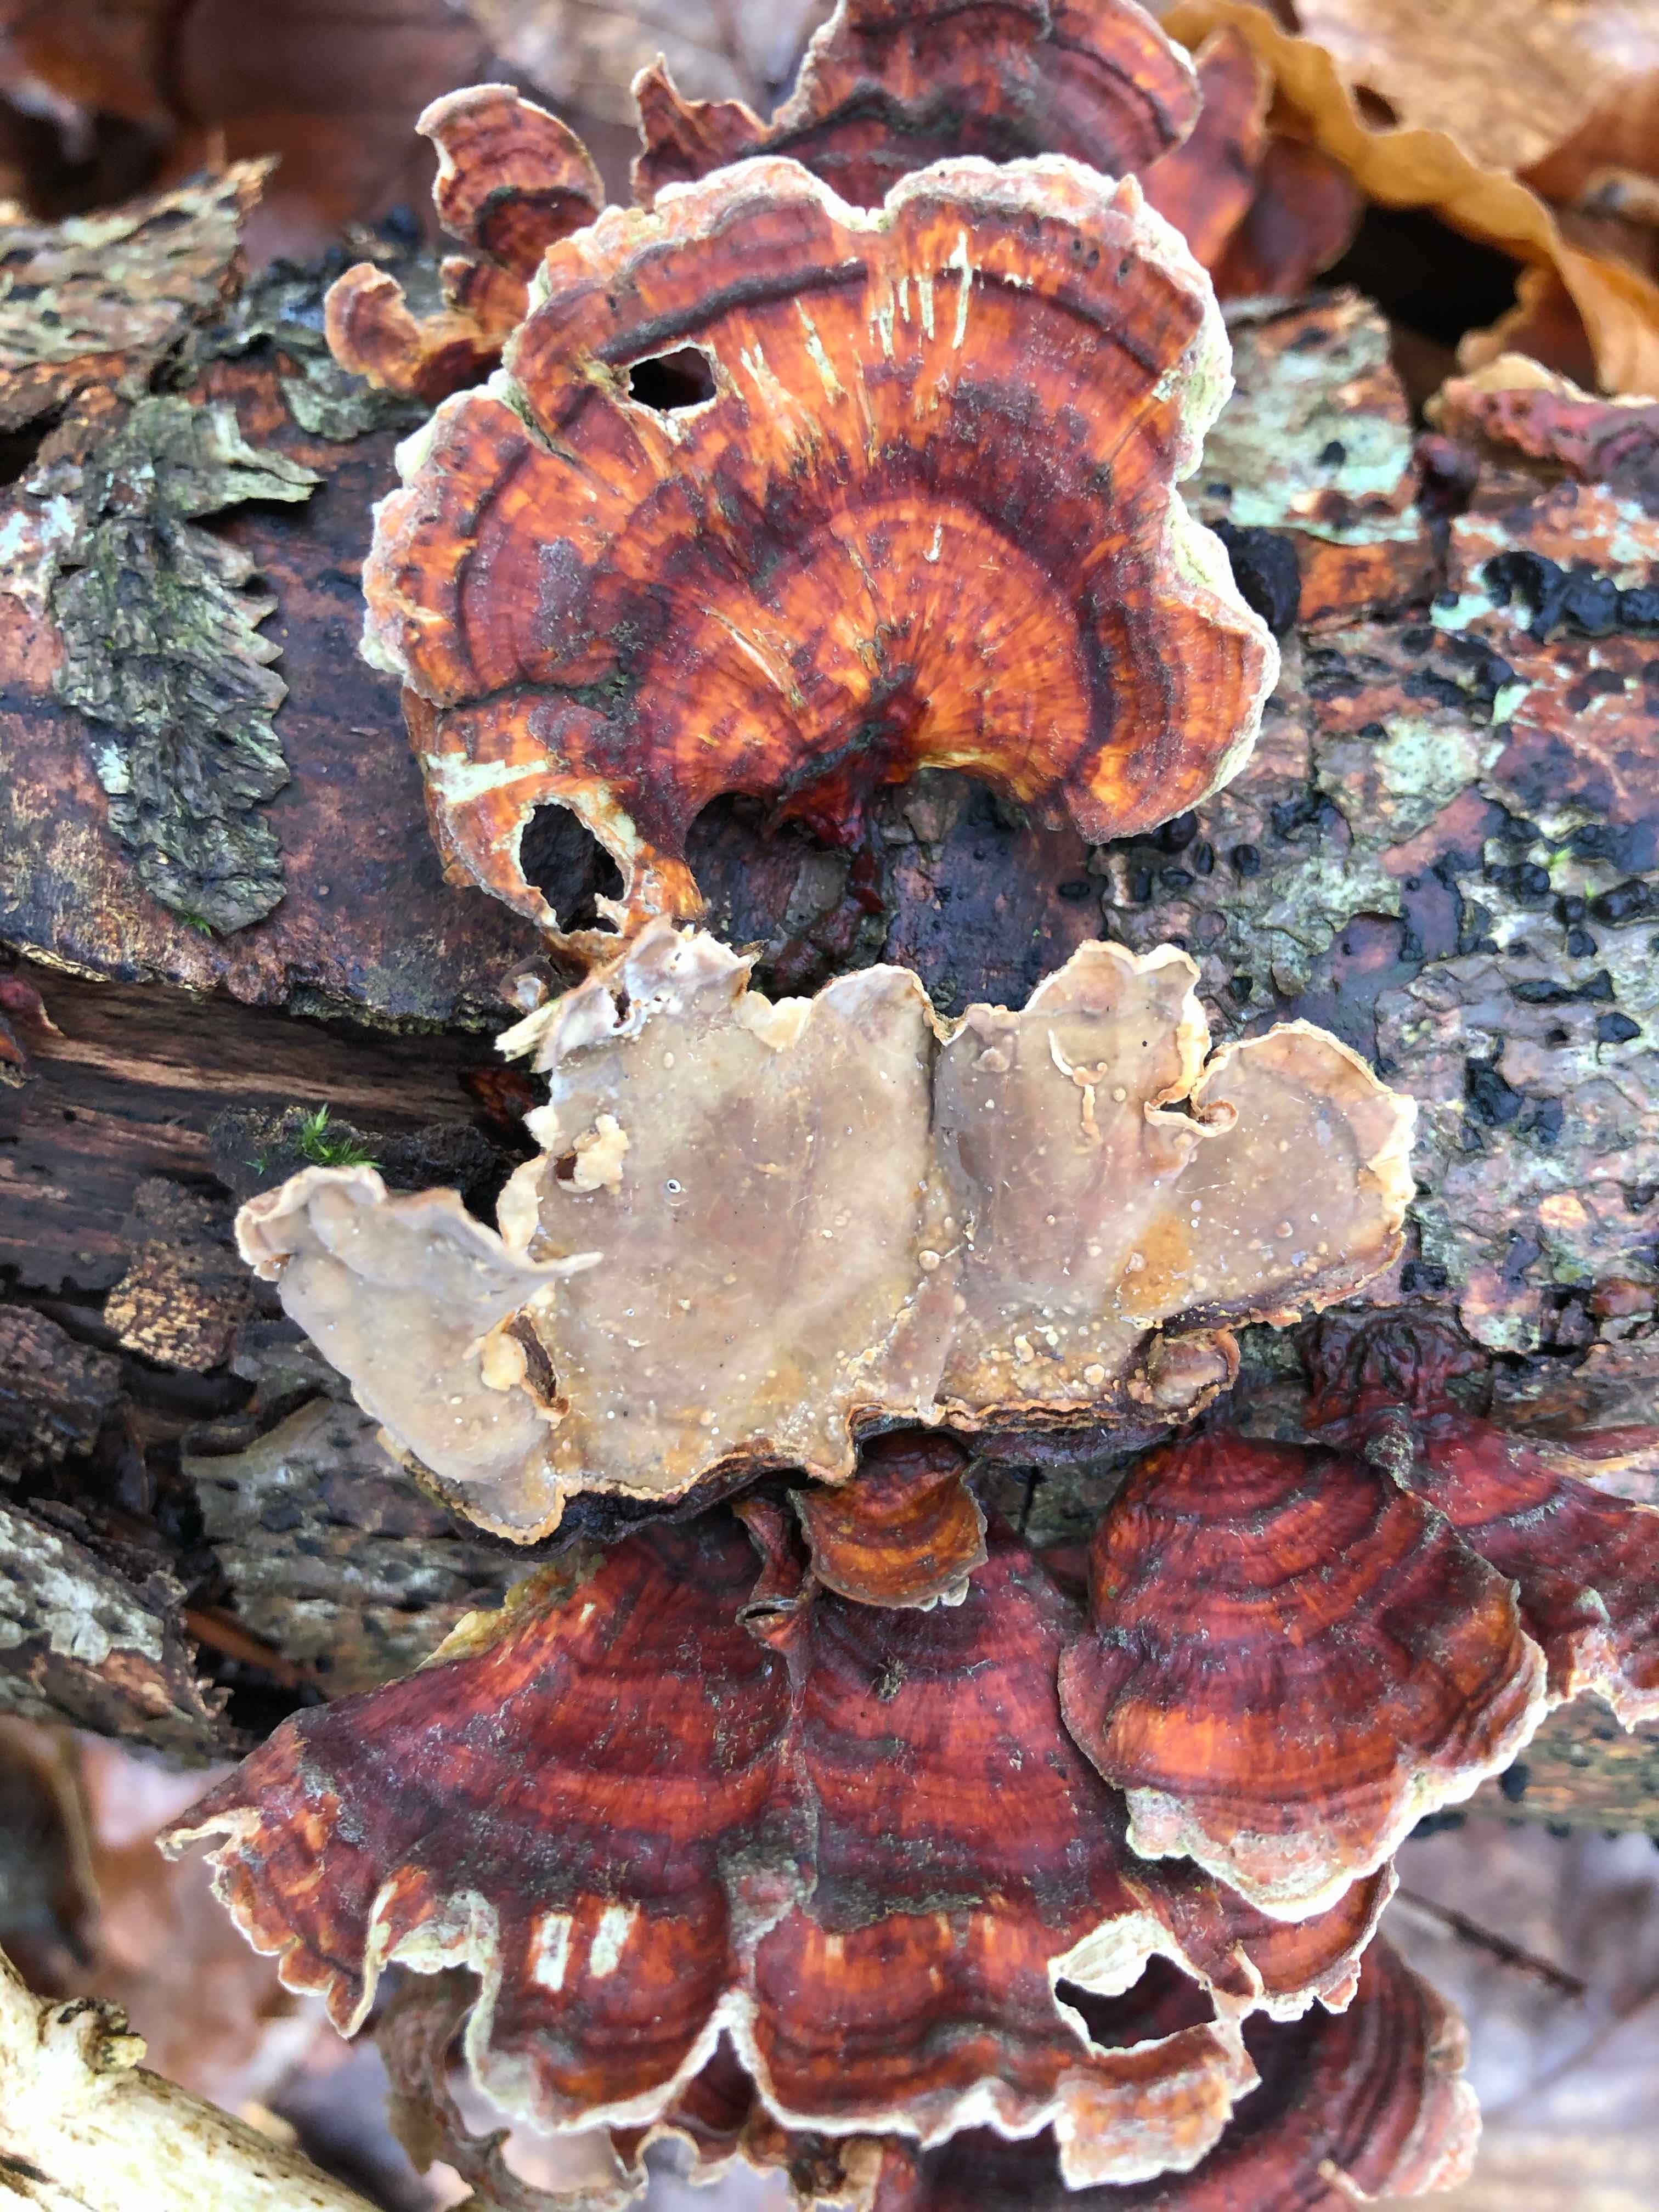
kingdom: Fungi
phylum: Basidiomycota
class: Agaricomycetes
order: Russulales
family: Stereaceae
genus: Stereum
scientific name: Stereum subtomentosum
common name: smuk lædersvamp
